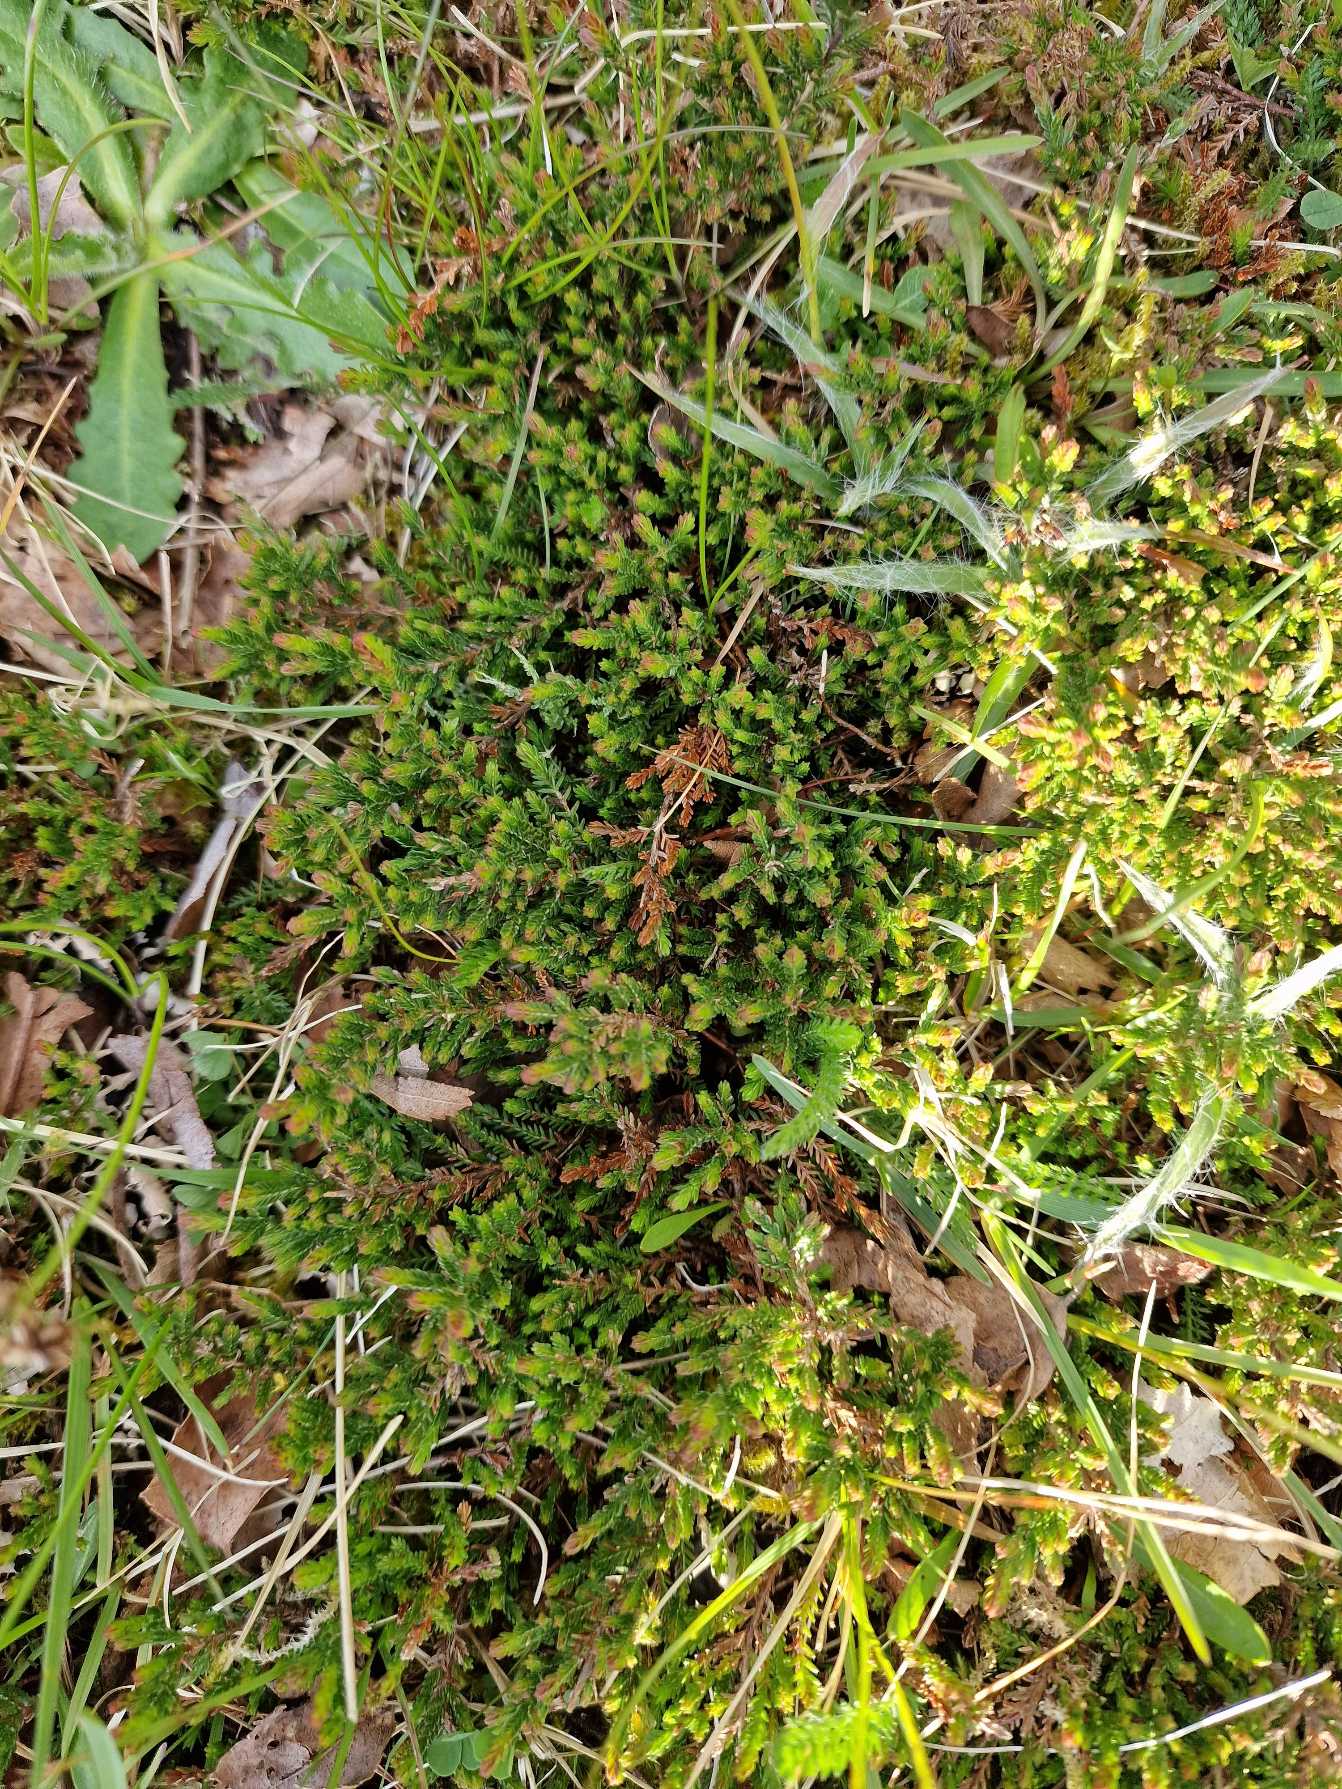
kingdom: Plantae
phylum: Tracheophyta
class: Magnoliopsida
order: Ericales
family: Ericaceae
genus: Calluna
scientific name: Calluna vulgaris
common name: Hedelyng
